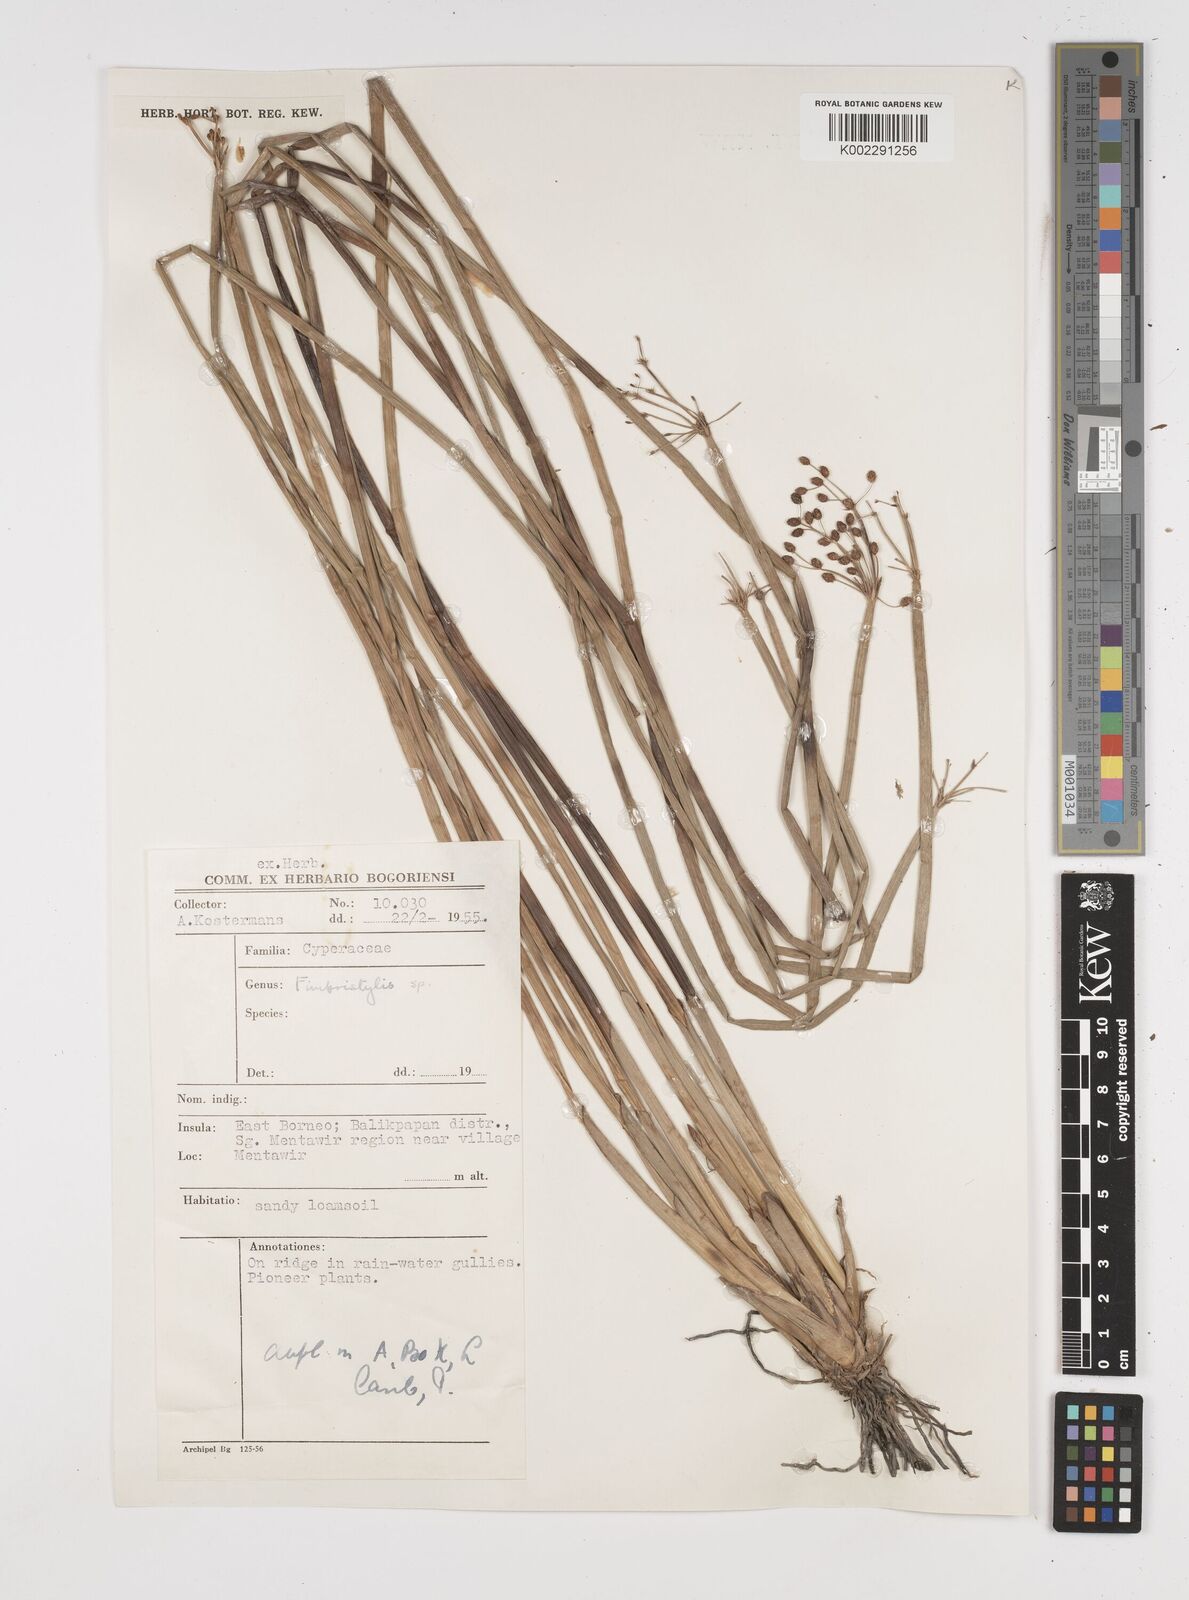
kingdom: Plantae
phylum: Tracheophyta
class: Liliopsida
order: Poales
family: Cyperaceae
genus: Fimbristylis
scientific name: Fimbristylis
